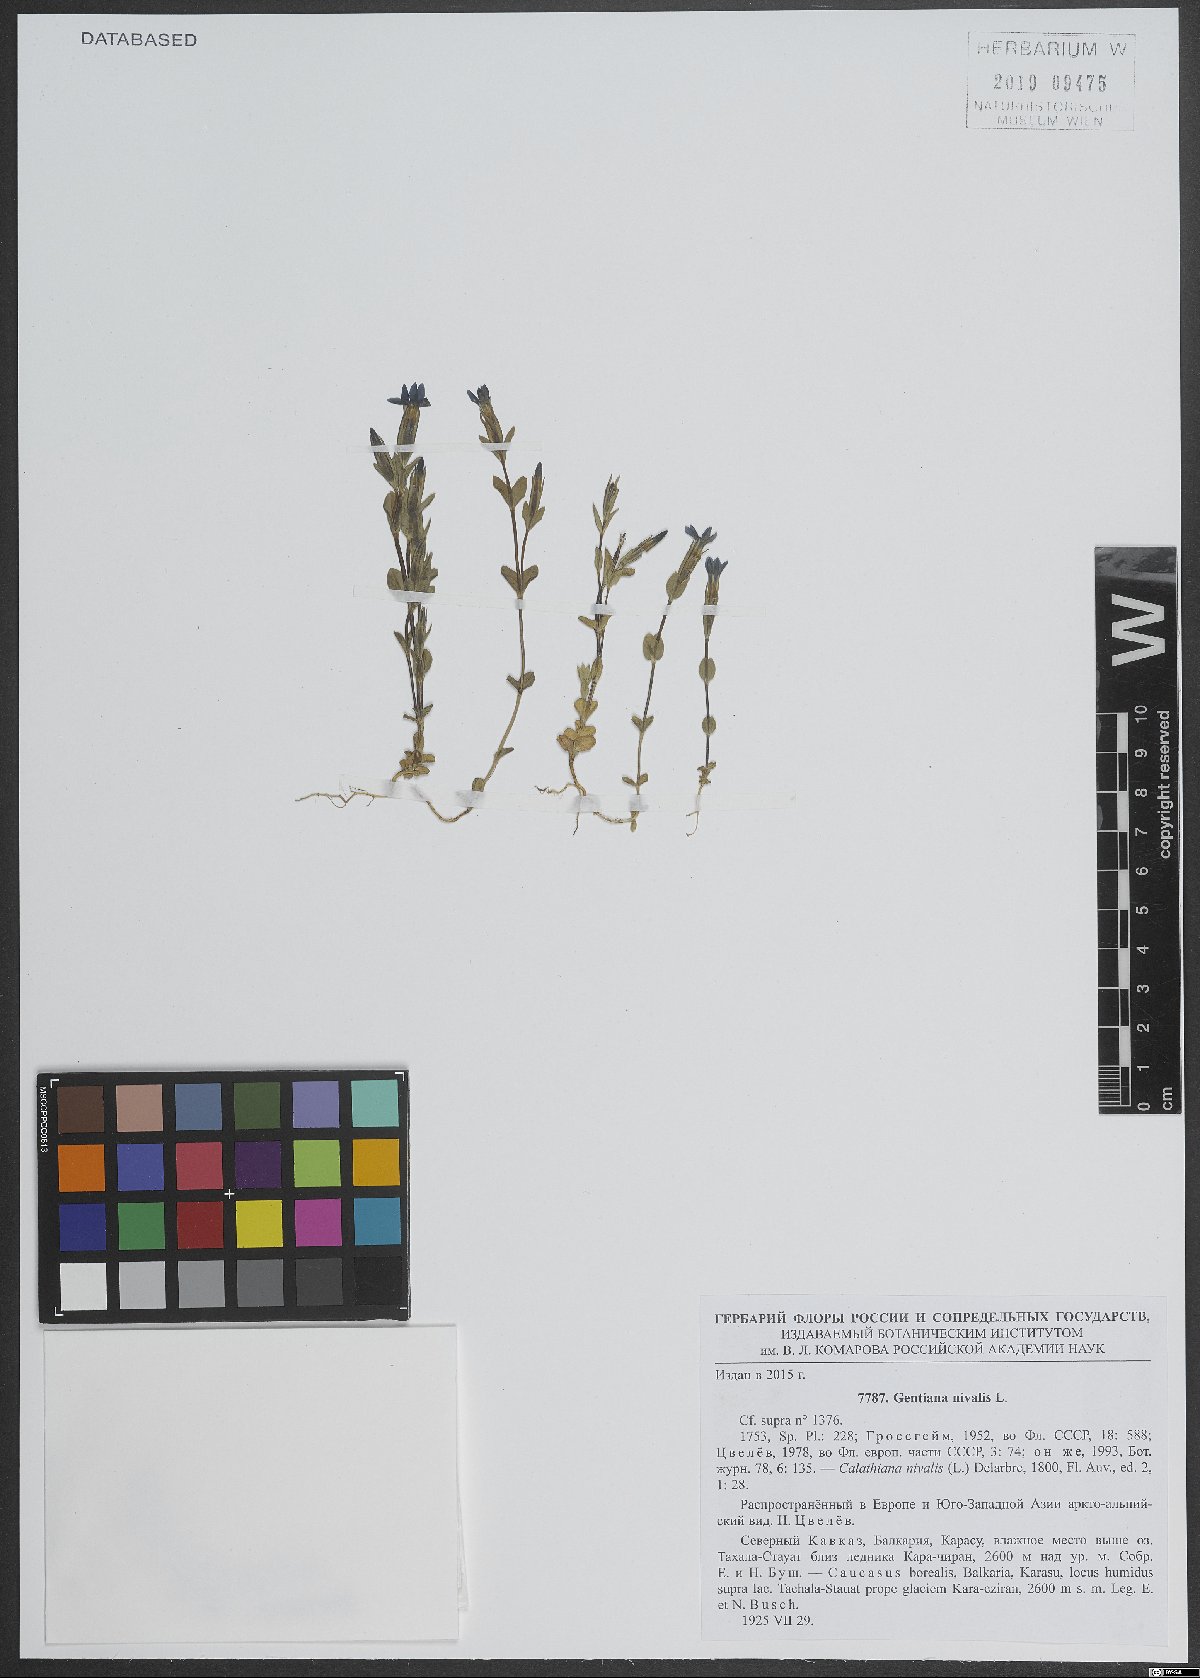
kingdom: Plantae
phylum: Tracheophyta
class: Magnoliopsida
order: Gentianales
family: Gentianaceae
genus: Gentiana
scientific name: Gentiana nivalis
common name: Alpine gentian
